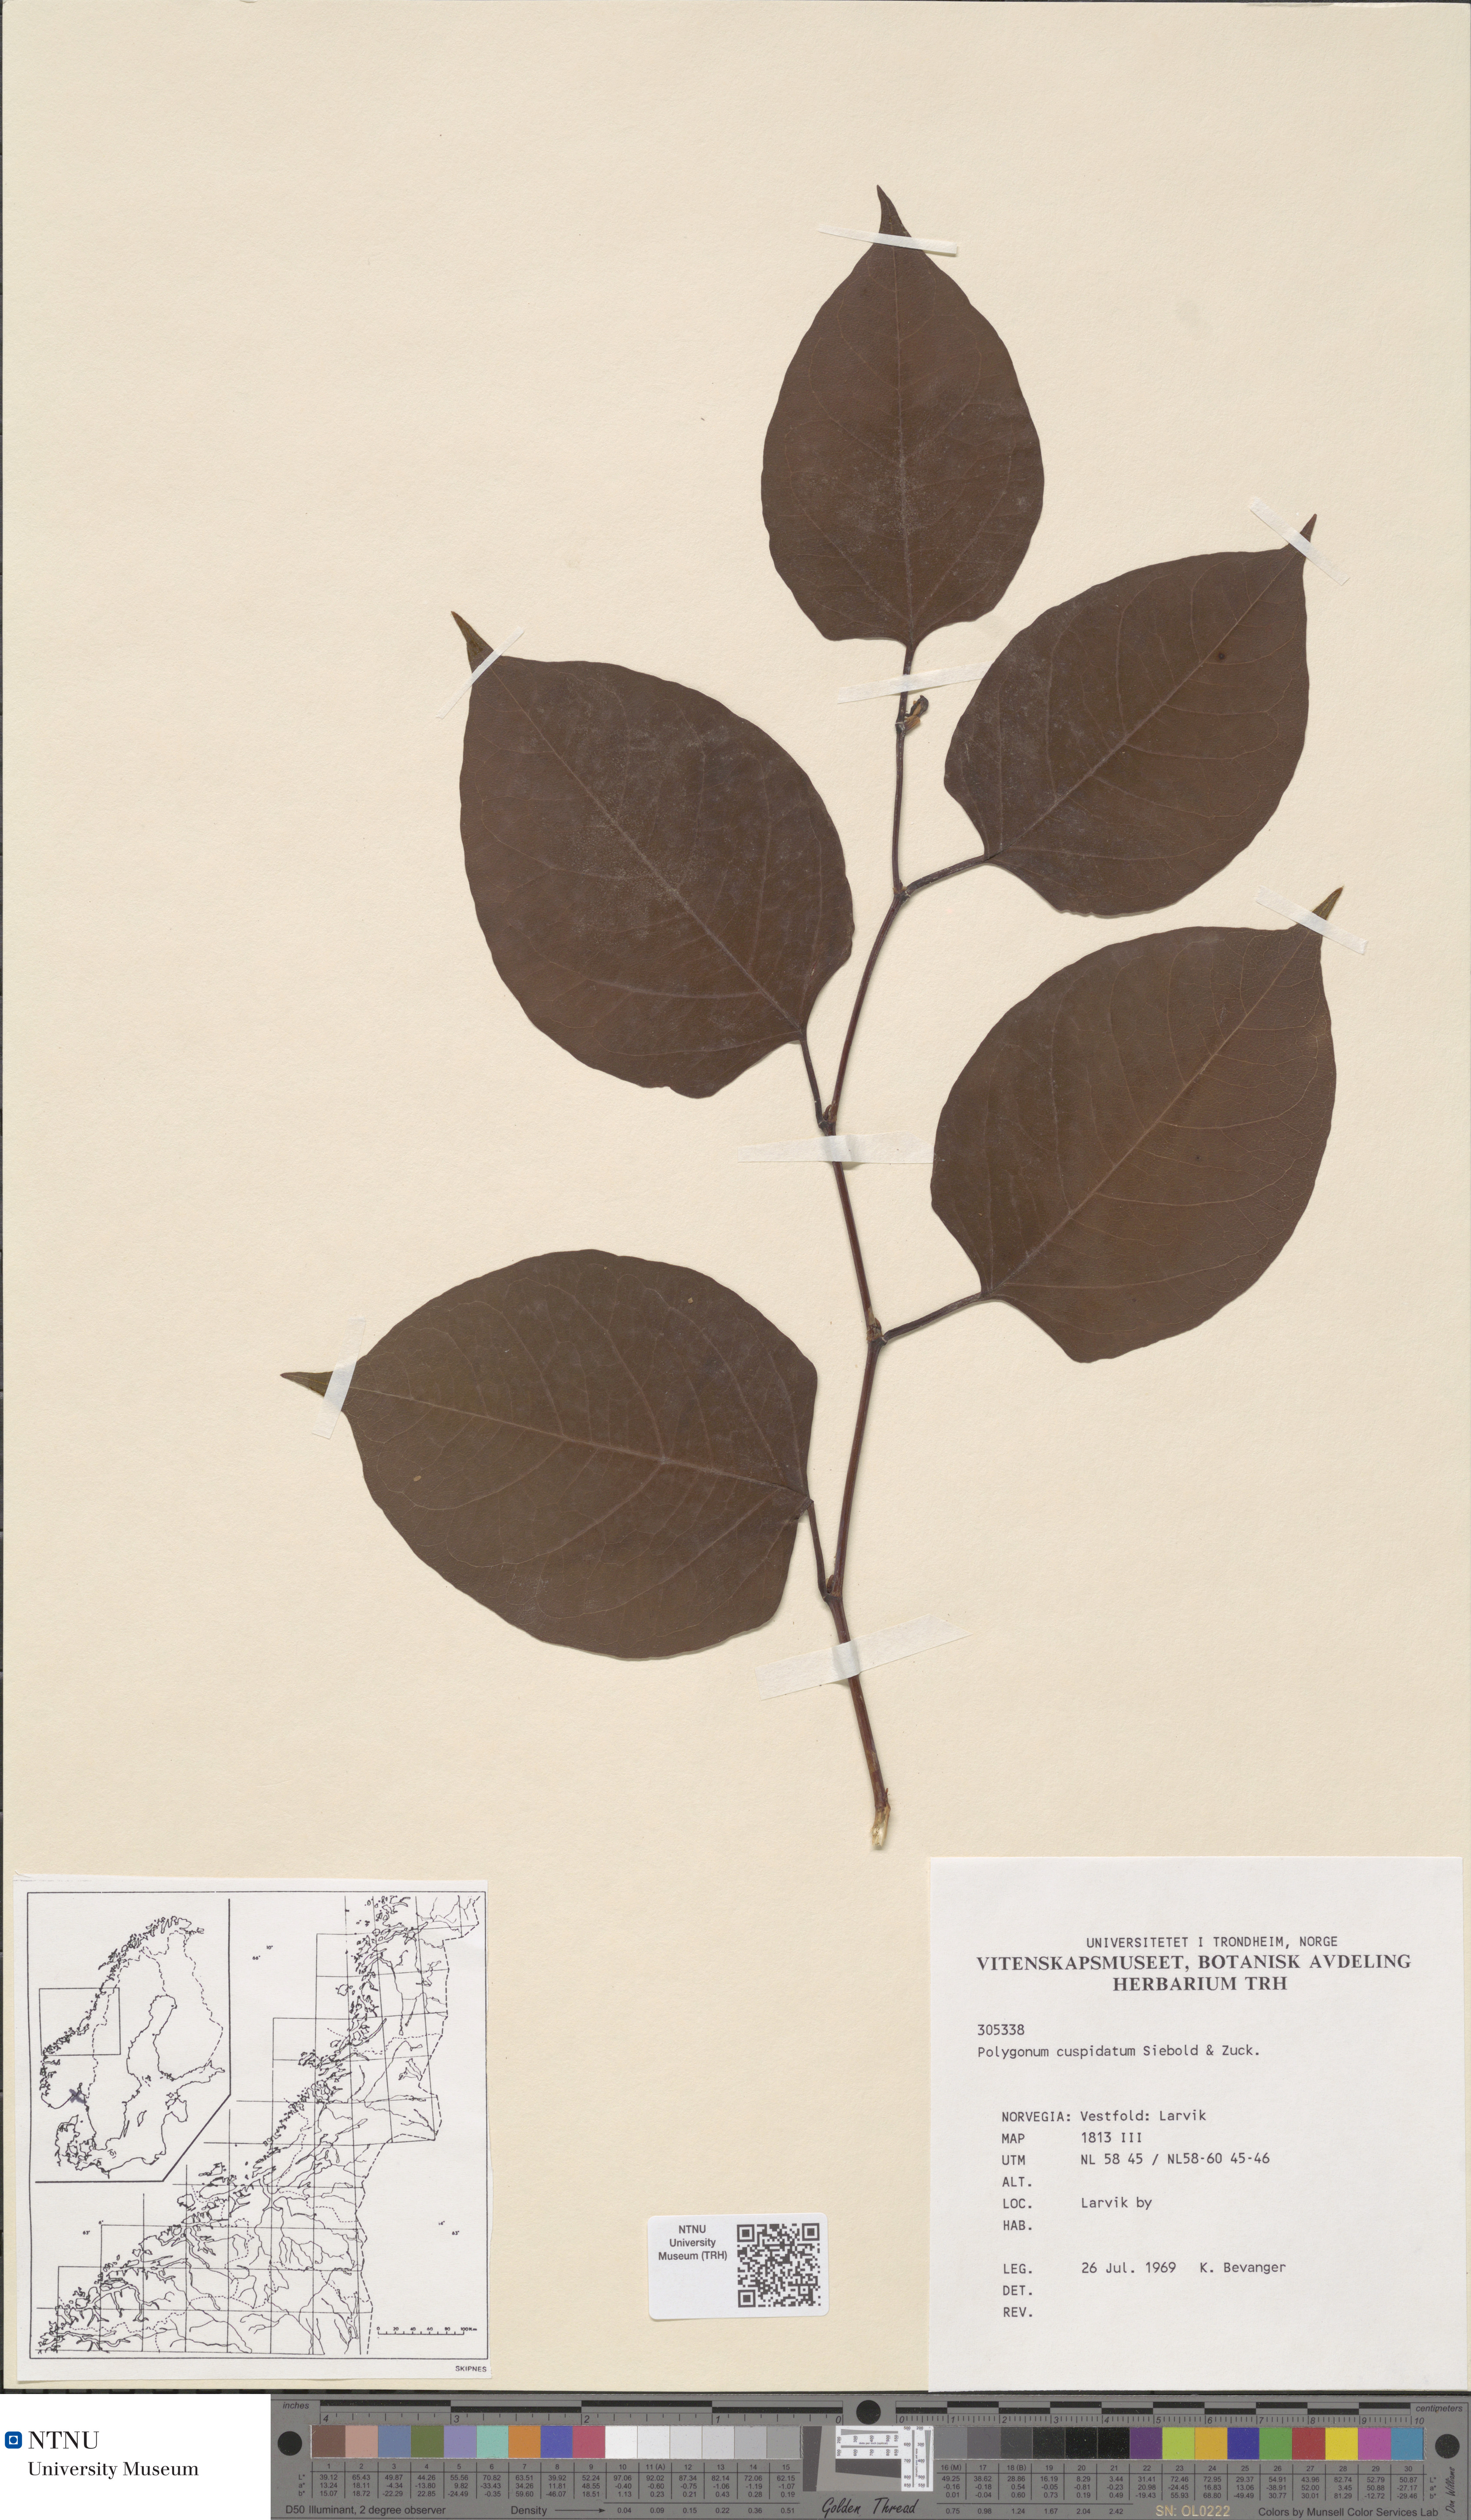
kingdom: Plantae
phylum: Tracheophyta
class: Magnoliopsida
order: Caryophyllales
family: Polygonaceae
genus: Reynoutria
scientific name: Reynoutria japonica
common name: Japanese knotweed
